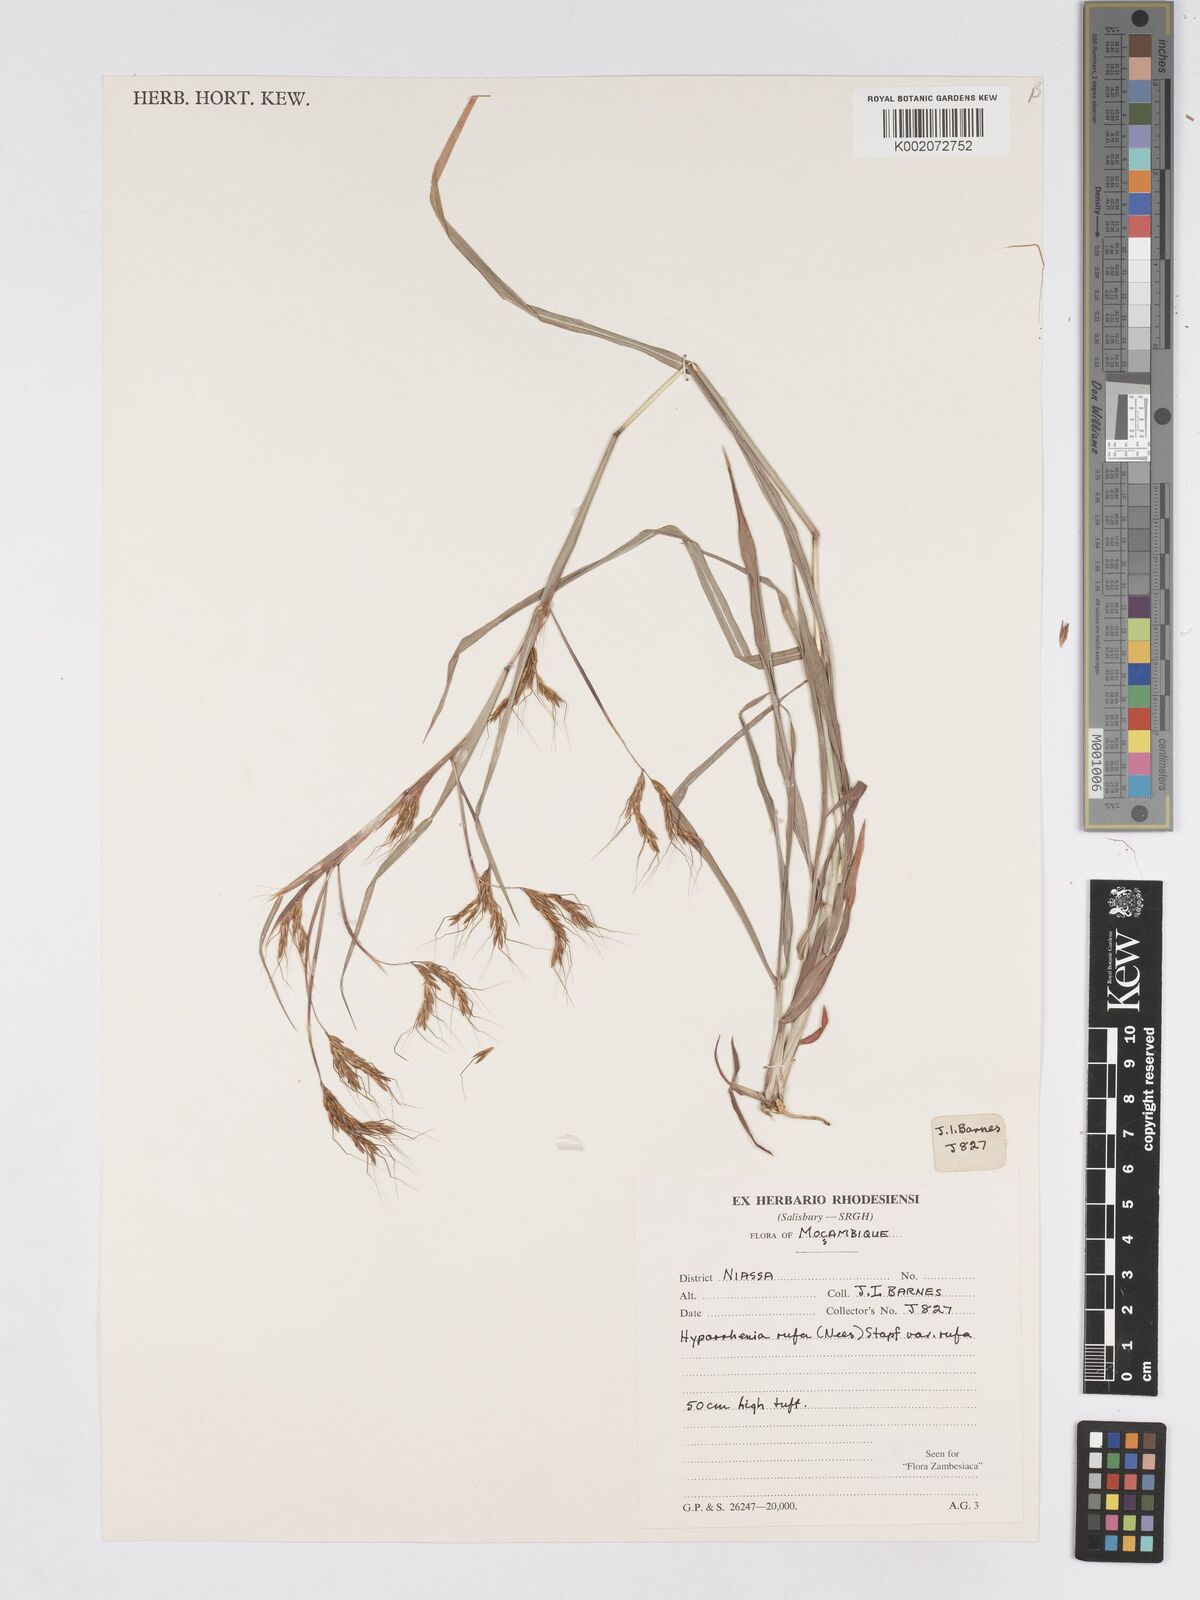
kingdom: Plantae
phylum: Tracheophyta
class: Liliopsida
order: Poales
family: Poaceae
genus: Hyparrhenia
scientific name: Hyparrhenia rufa
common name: Jaraguagrass
